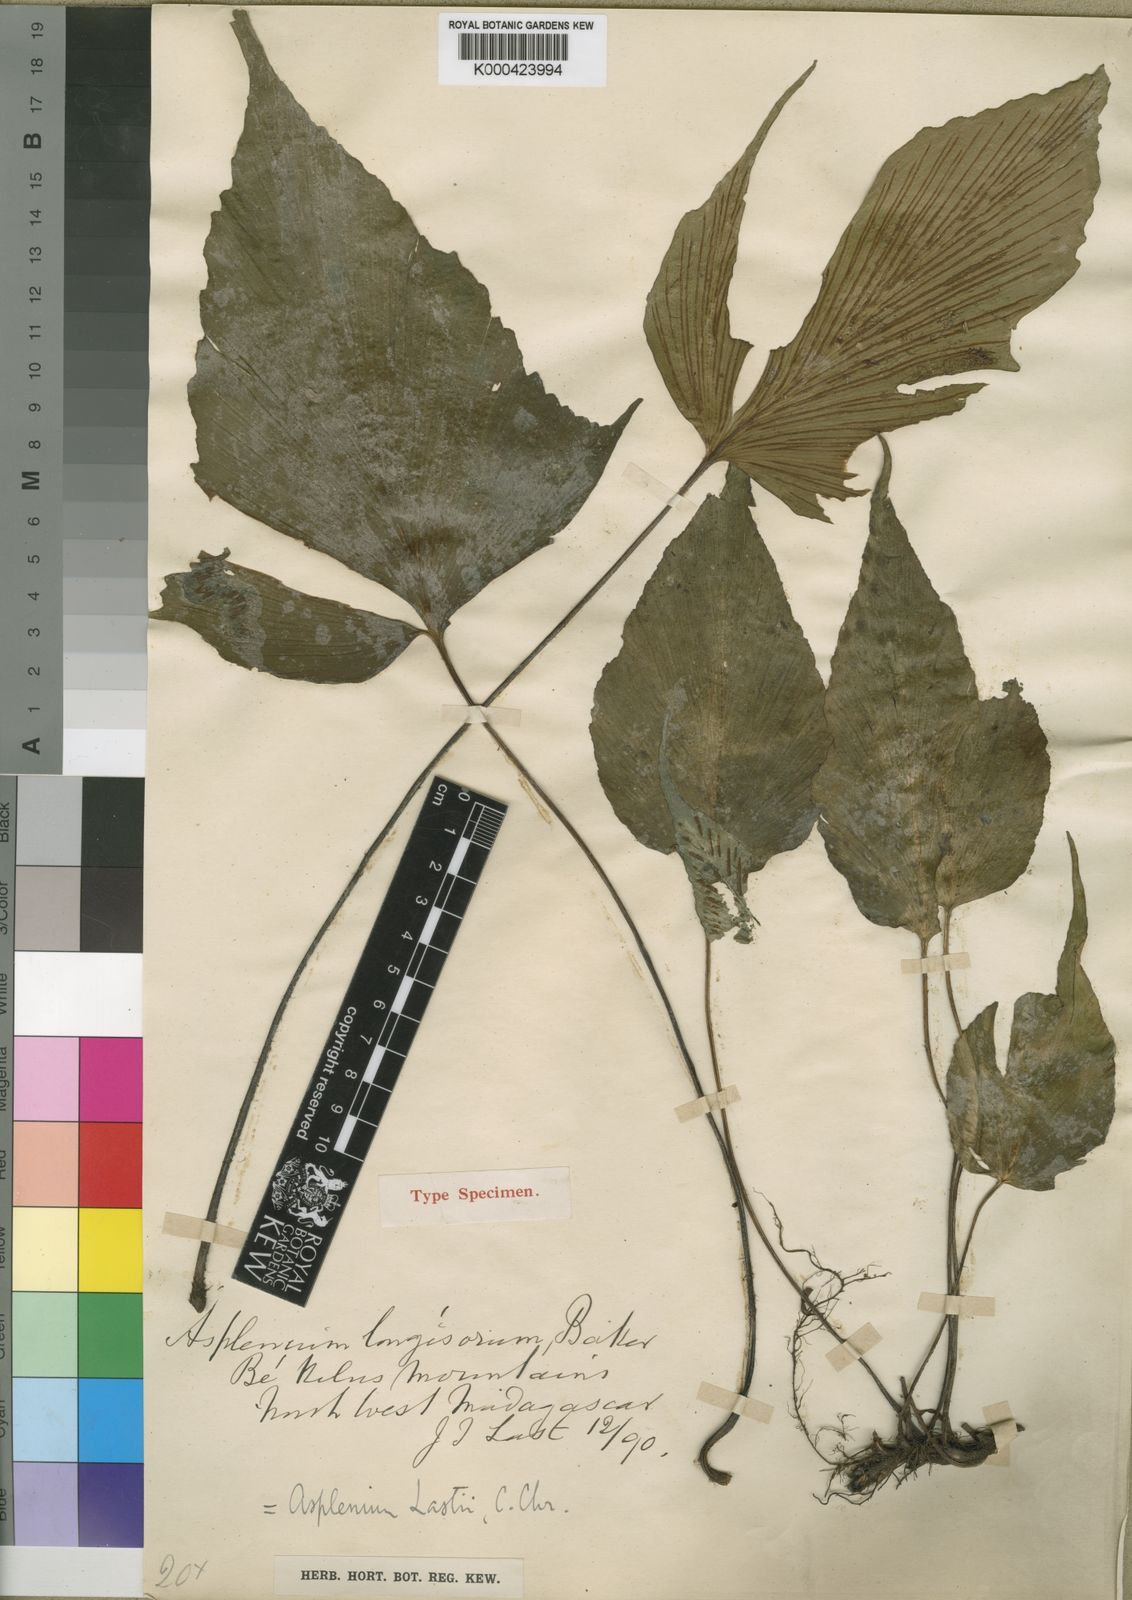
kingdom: Plantae
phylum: Tracheophyta
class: Polypodiopsida
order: Polypodiales
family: Aspleniaceae
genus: Asplenium
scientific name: Asplenium lastii
